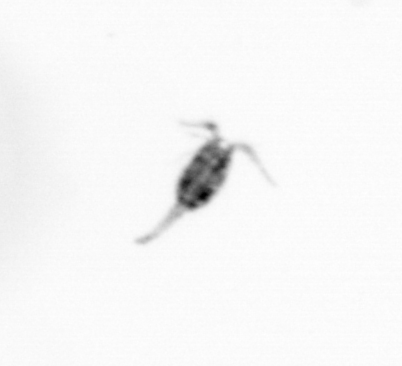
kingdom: Animalia
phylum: Arthropoda
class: Copepoda
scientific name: Copepoda
